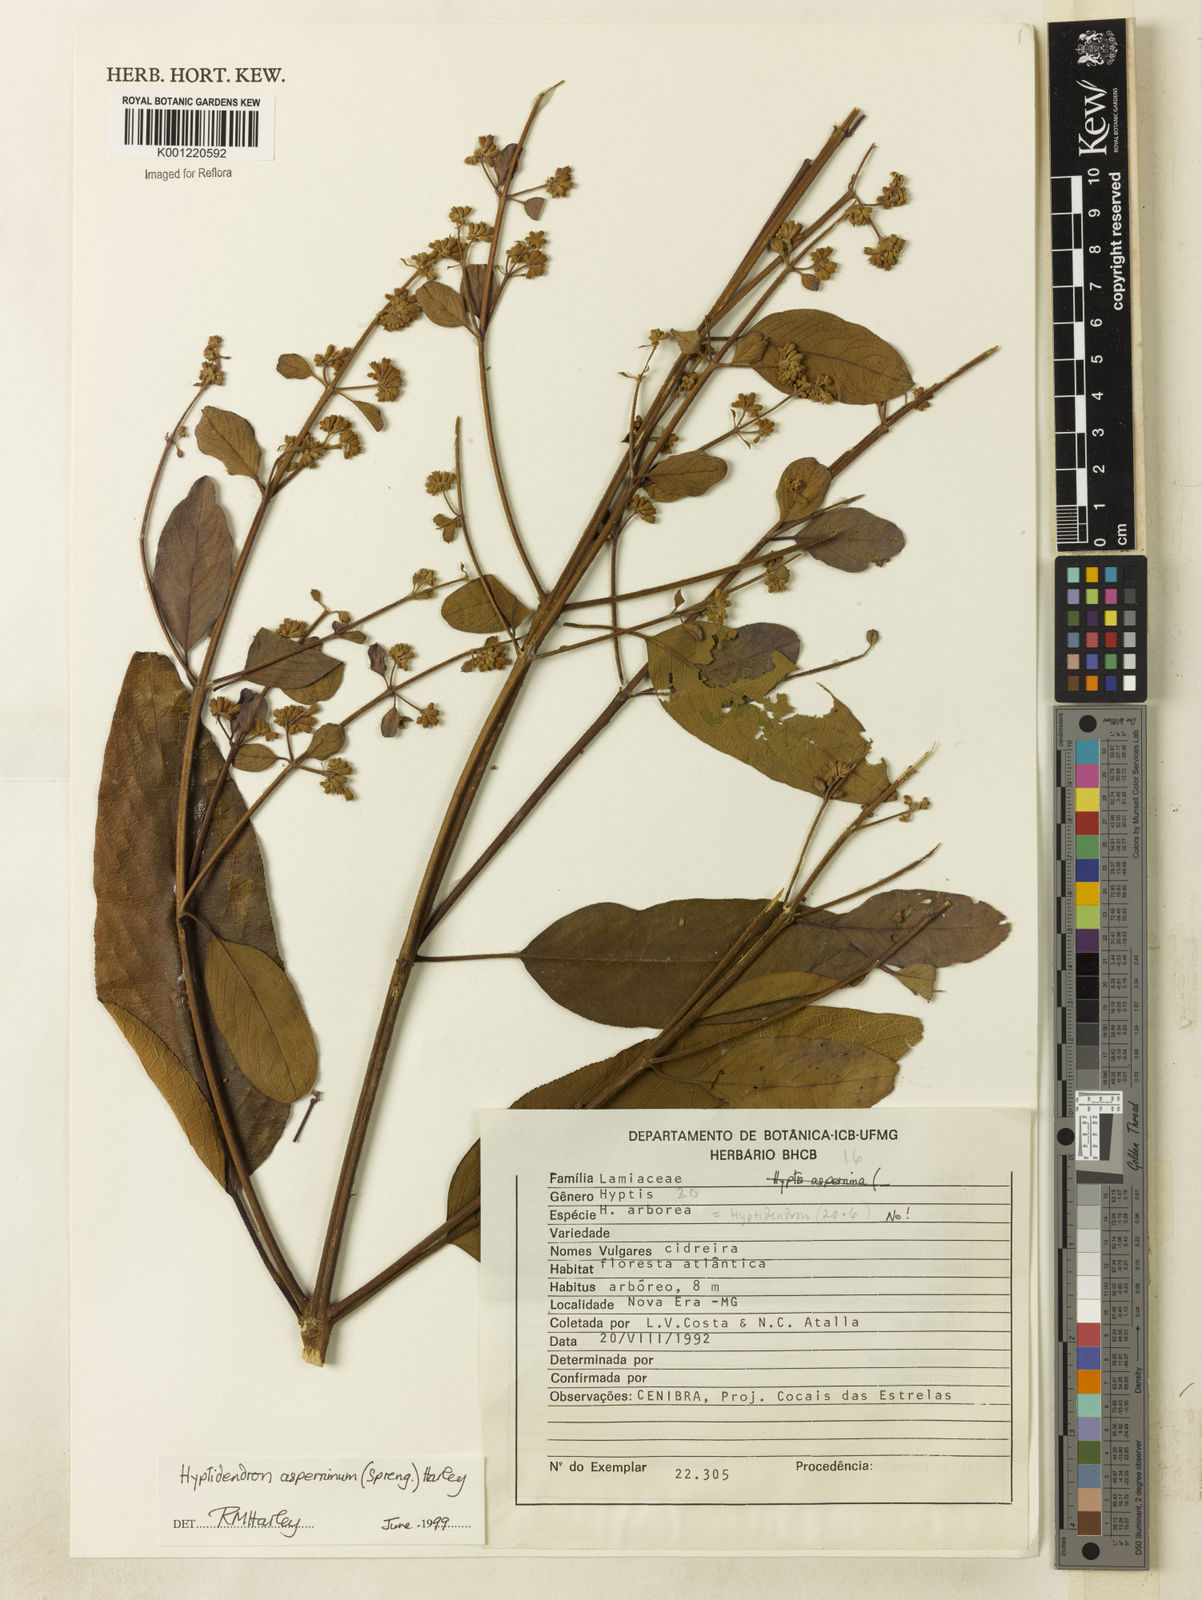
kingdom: Plantae
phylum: Tracheophyta
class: Magnoliopsida
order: Lamiales
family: Lamiaceae
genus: Hyptidendron
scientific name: Hyptidendron asperrimum
